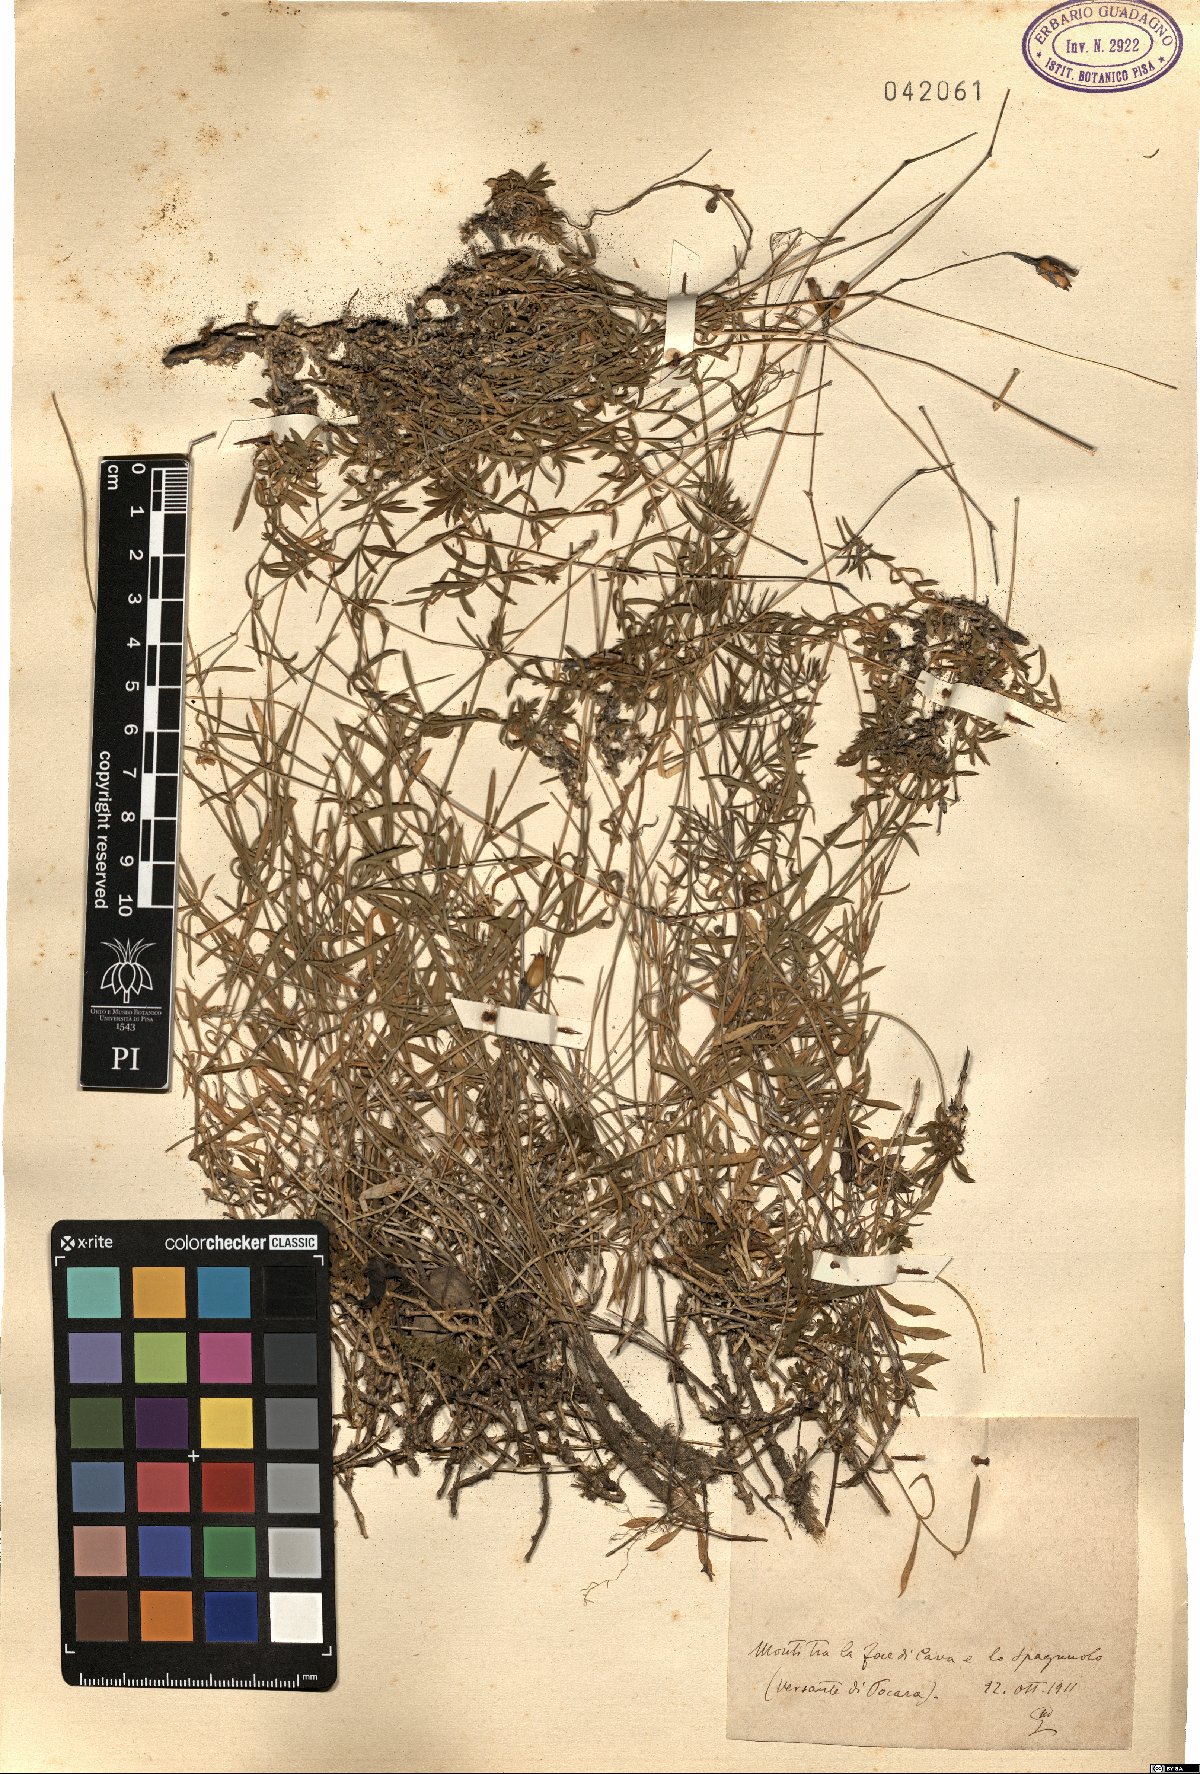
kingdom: Plantae
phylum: Tracheophyta
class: Magnoliopsida
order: Caryophyllales
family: Caryophyllaceae
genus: Silene
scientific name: Silene
